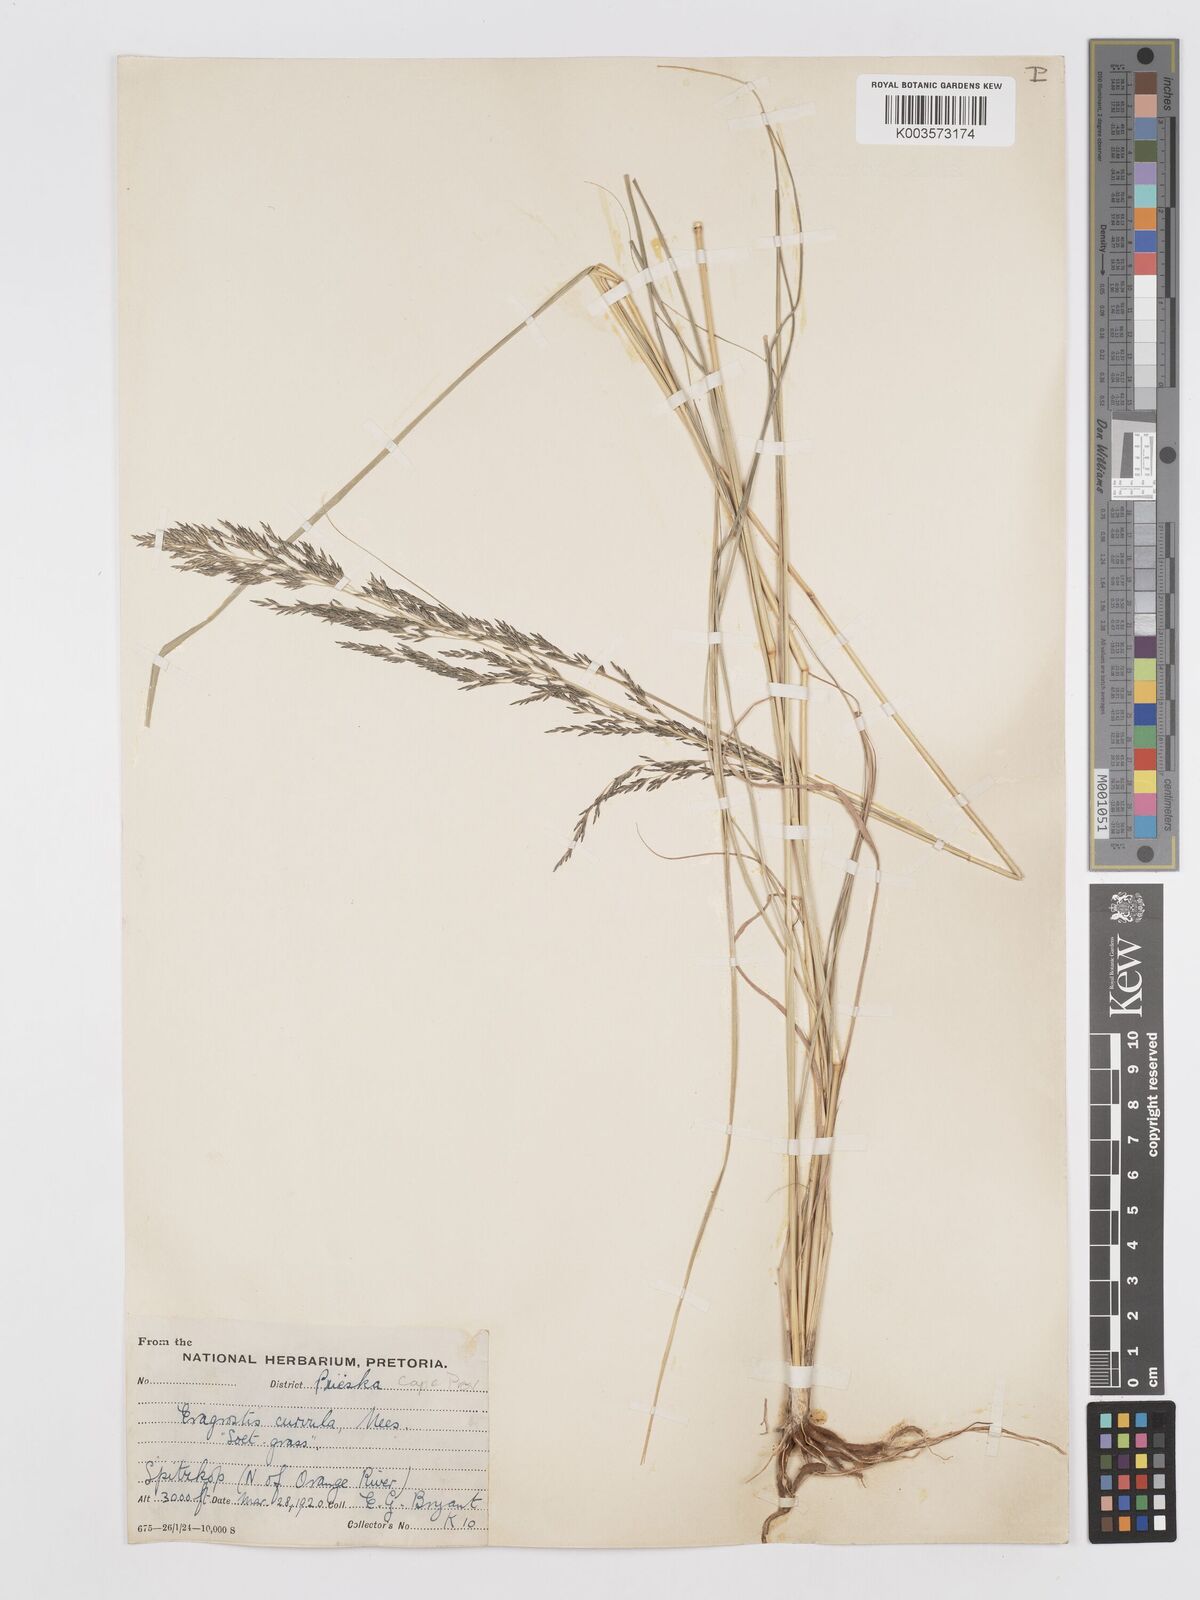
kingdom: Plantae
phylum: Tracheophyta
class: Liliopsida
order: Poales
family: Poaceae
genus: Eragrostis
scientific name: Eragrostis curvula
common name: African love-grass
